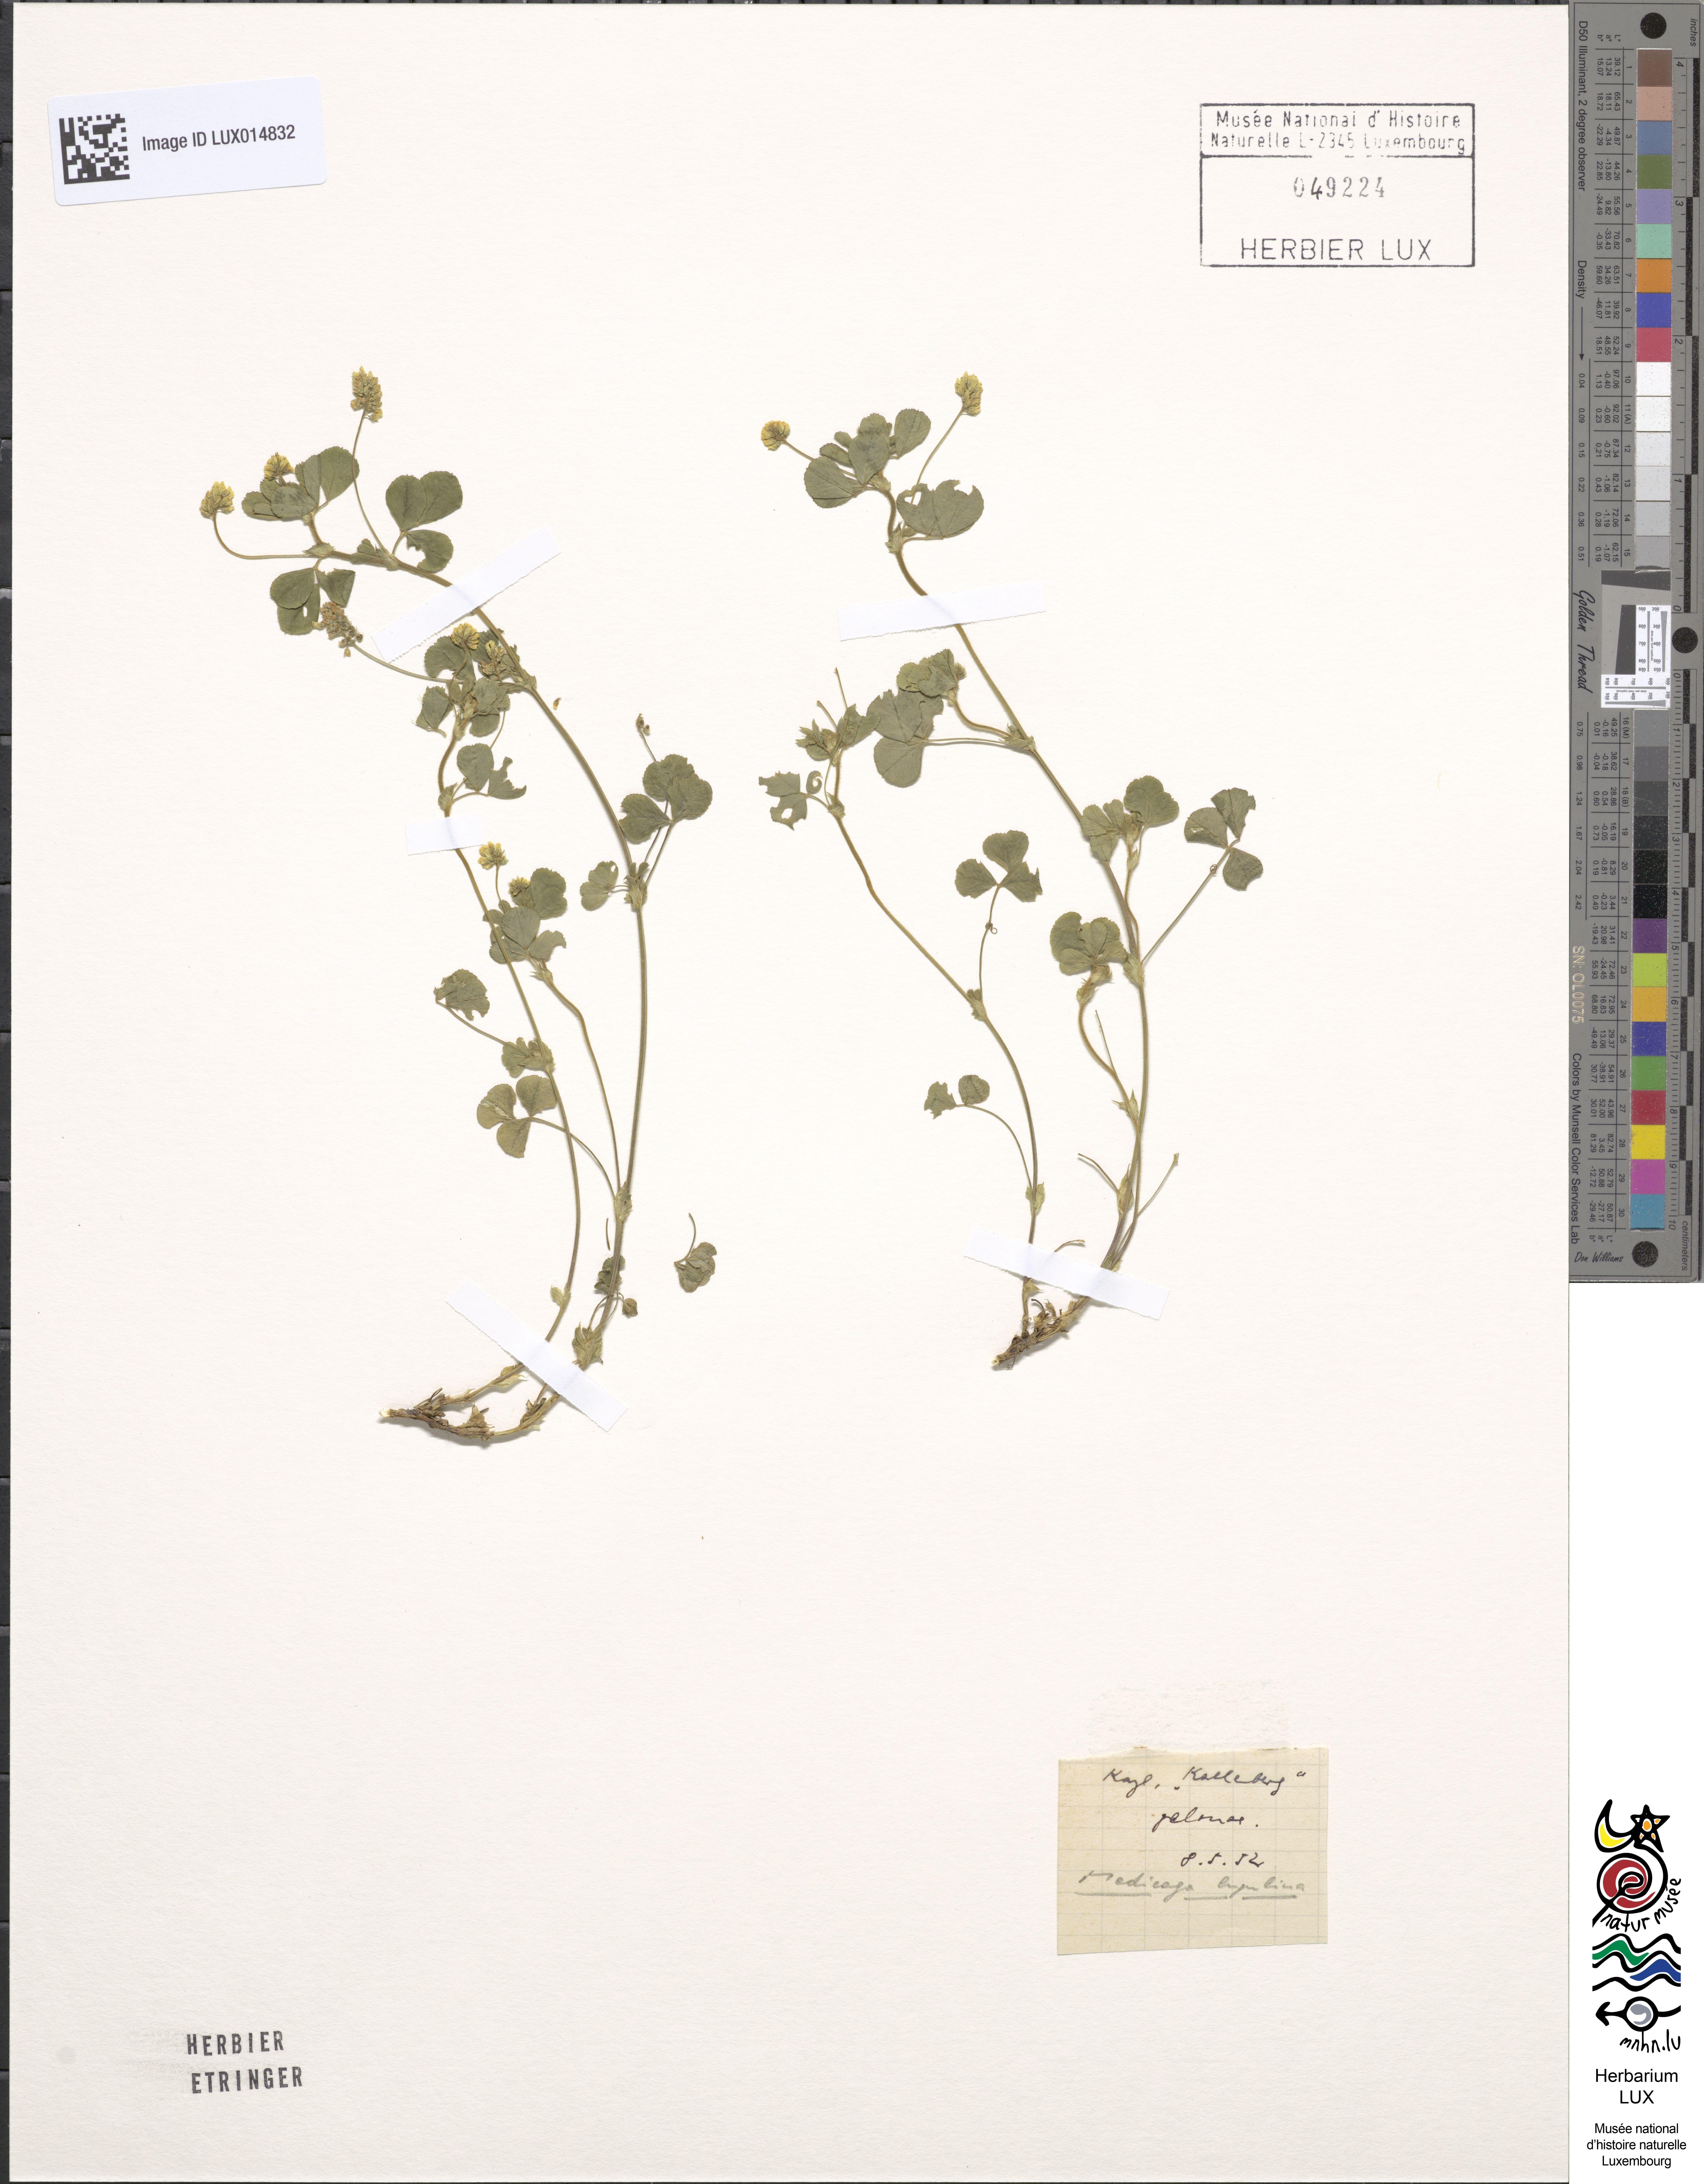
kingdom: Plantae
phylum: Tracheophyta
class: Magnoliopsida
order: Fabales
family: Fabaceae
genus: Medicago
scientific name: Medicago lupulina
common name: Black medick
